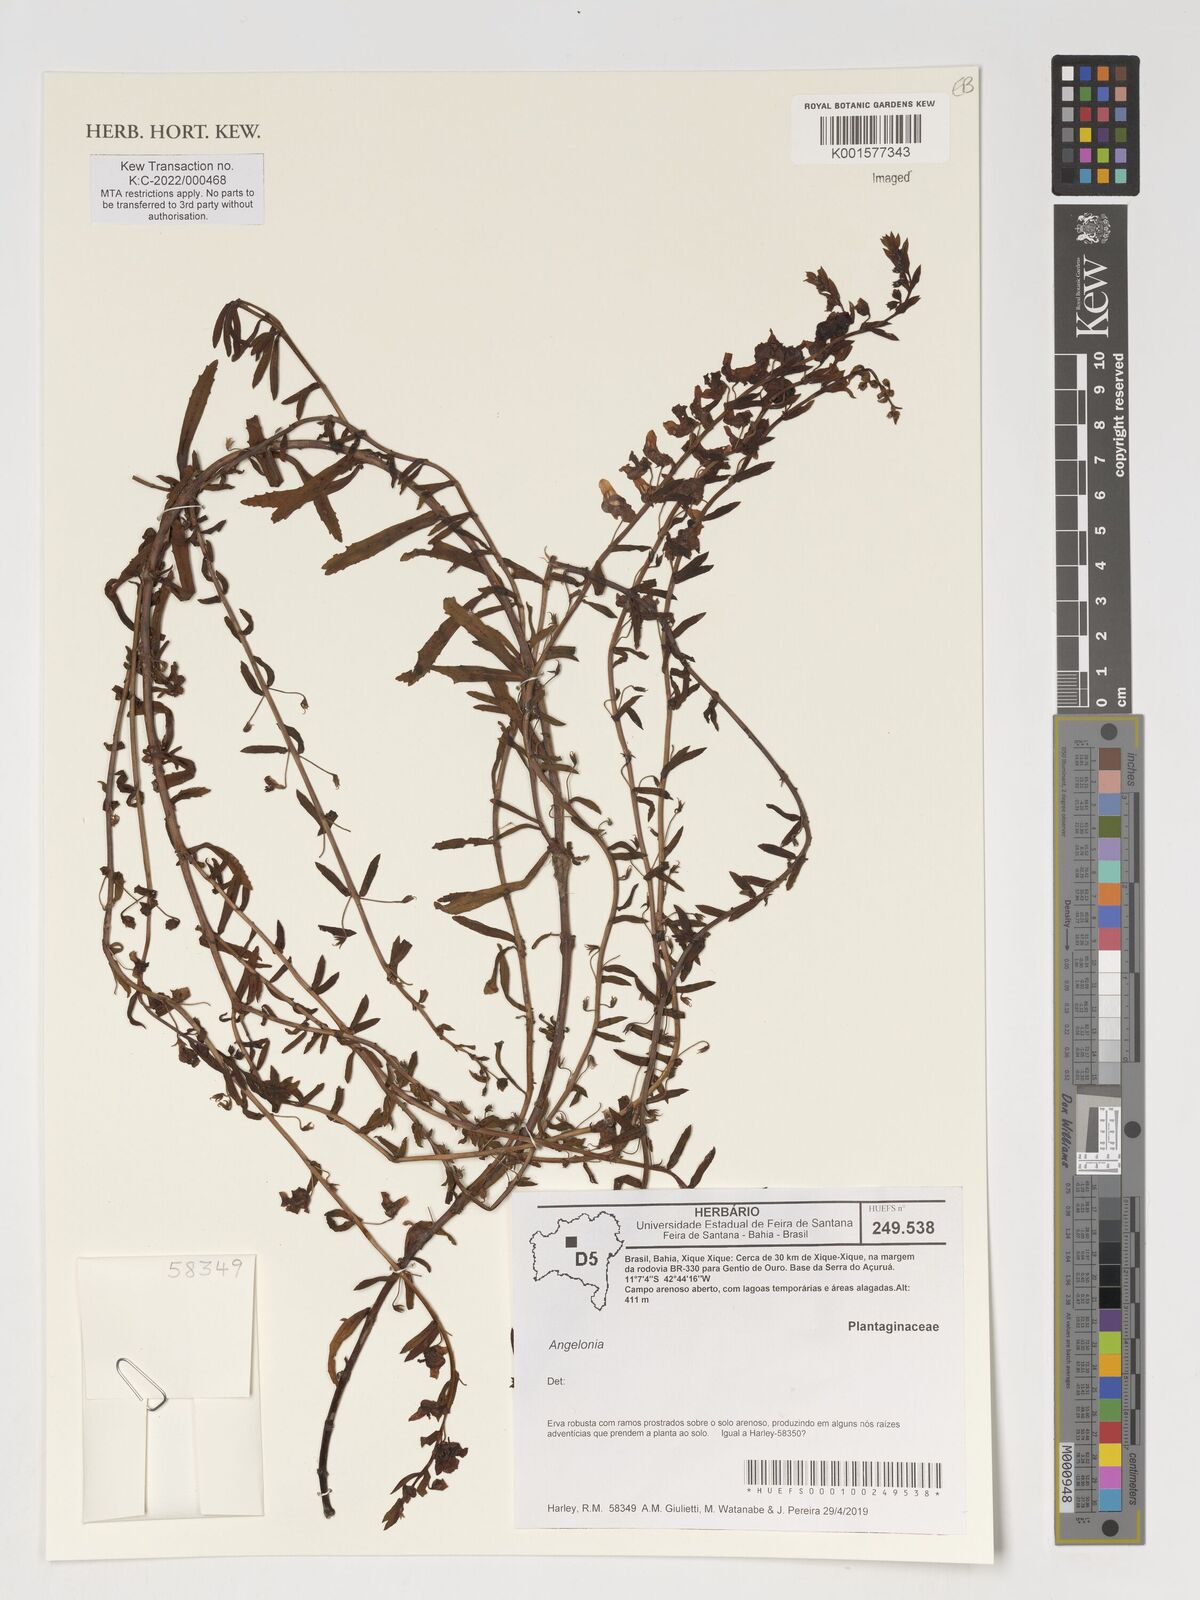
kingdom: Plantae
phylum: Tracheophyta
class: Magnoliopsida
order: Lamiales
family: Plantaginaceae
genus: Angelonia
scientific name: Angelonia
